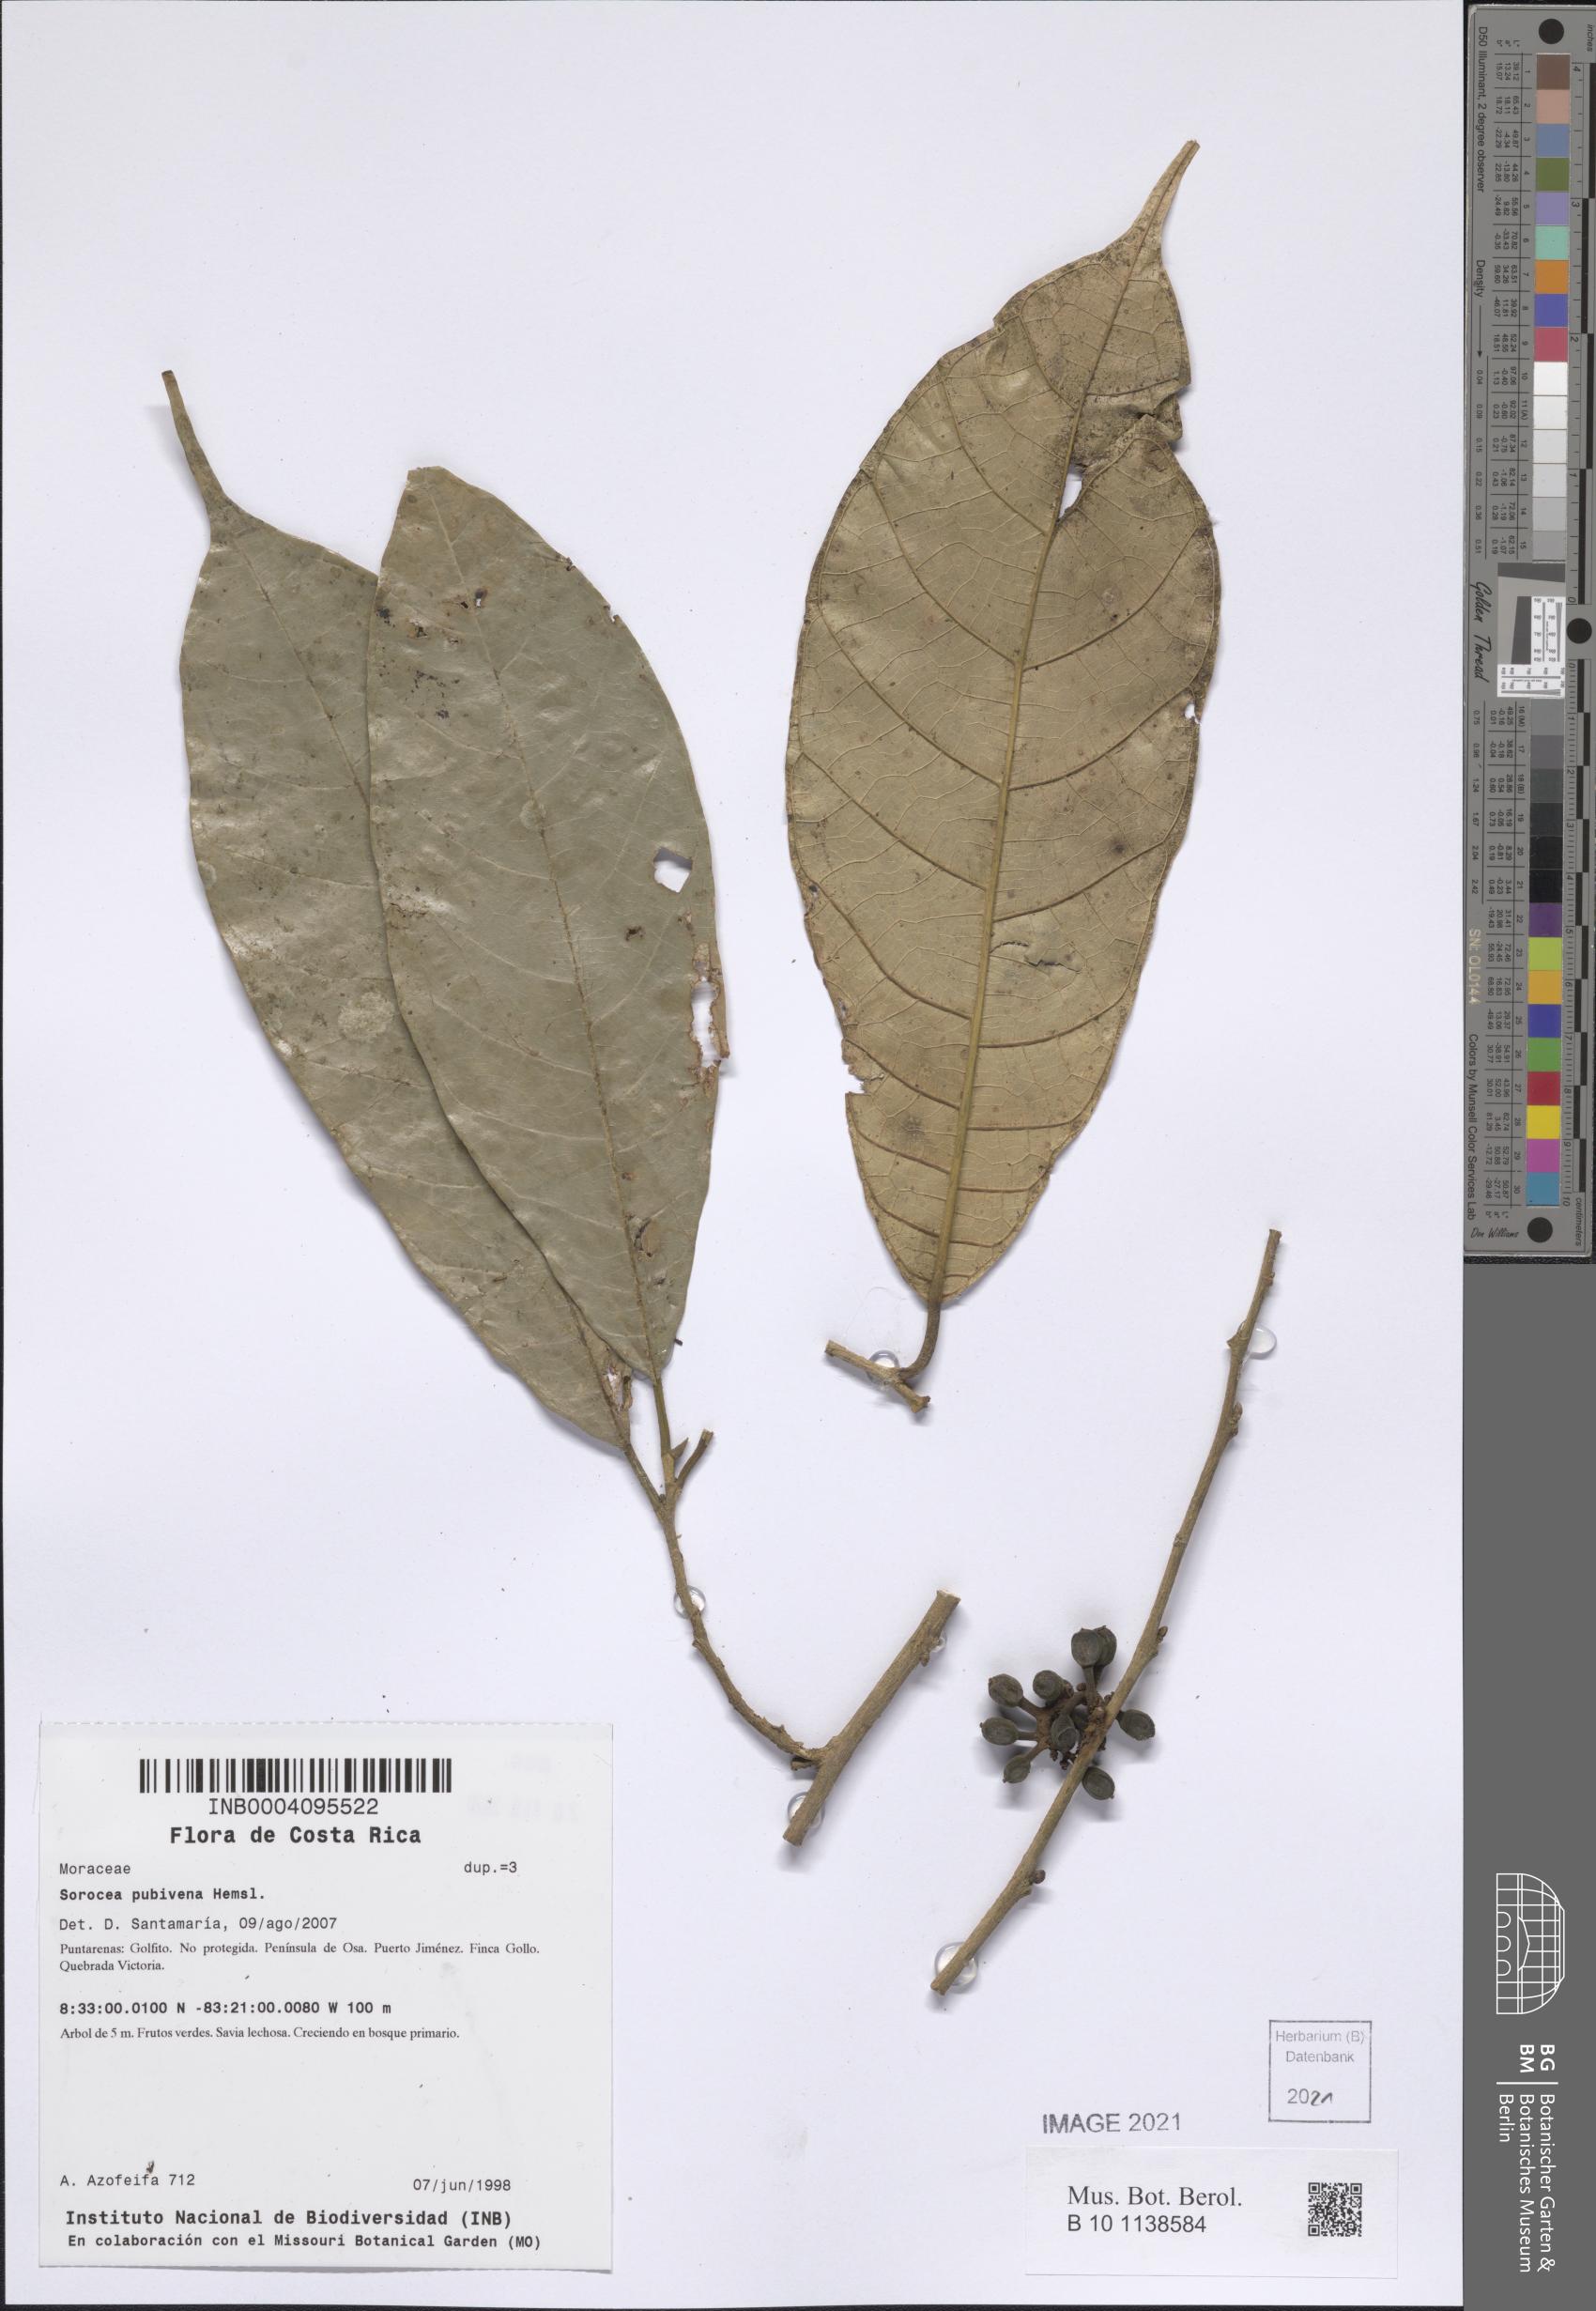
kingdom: Plantae
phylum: Tracheophyta
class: Magnoliopsida
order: Rosales
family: Moraceae
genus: Sorocea
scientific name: Sorocea pubivena
